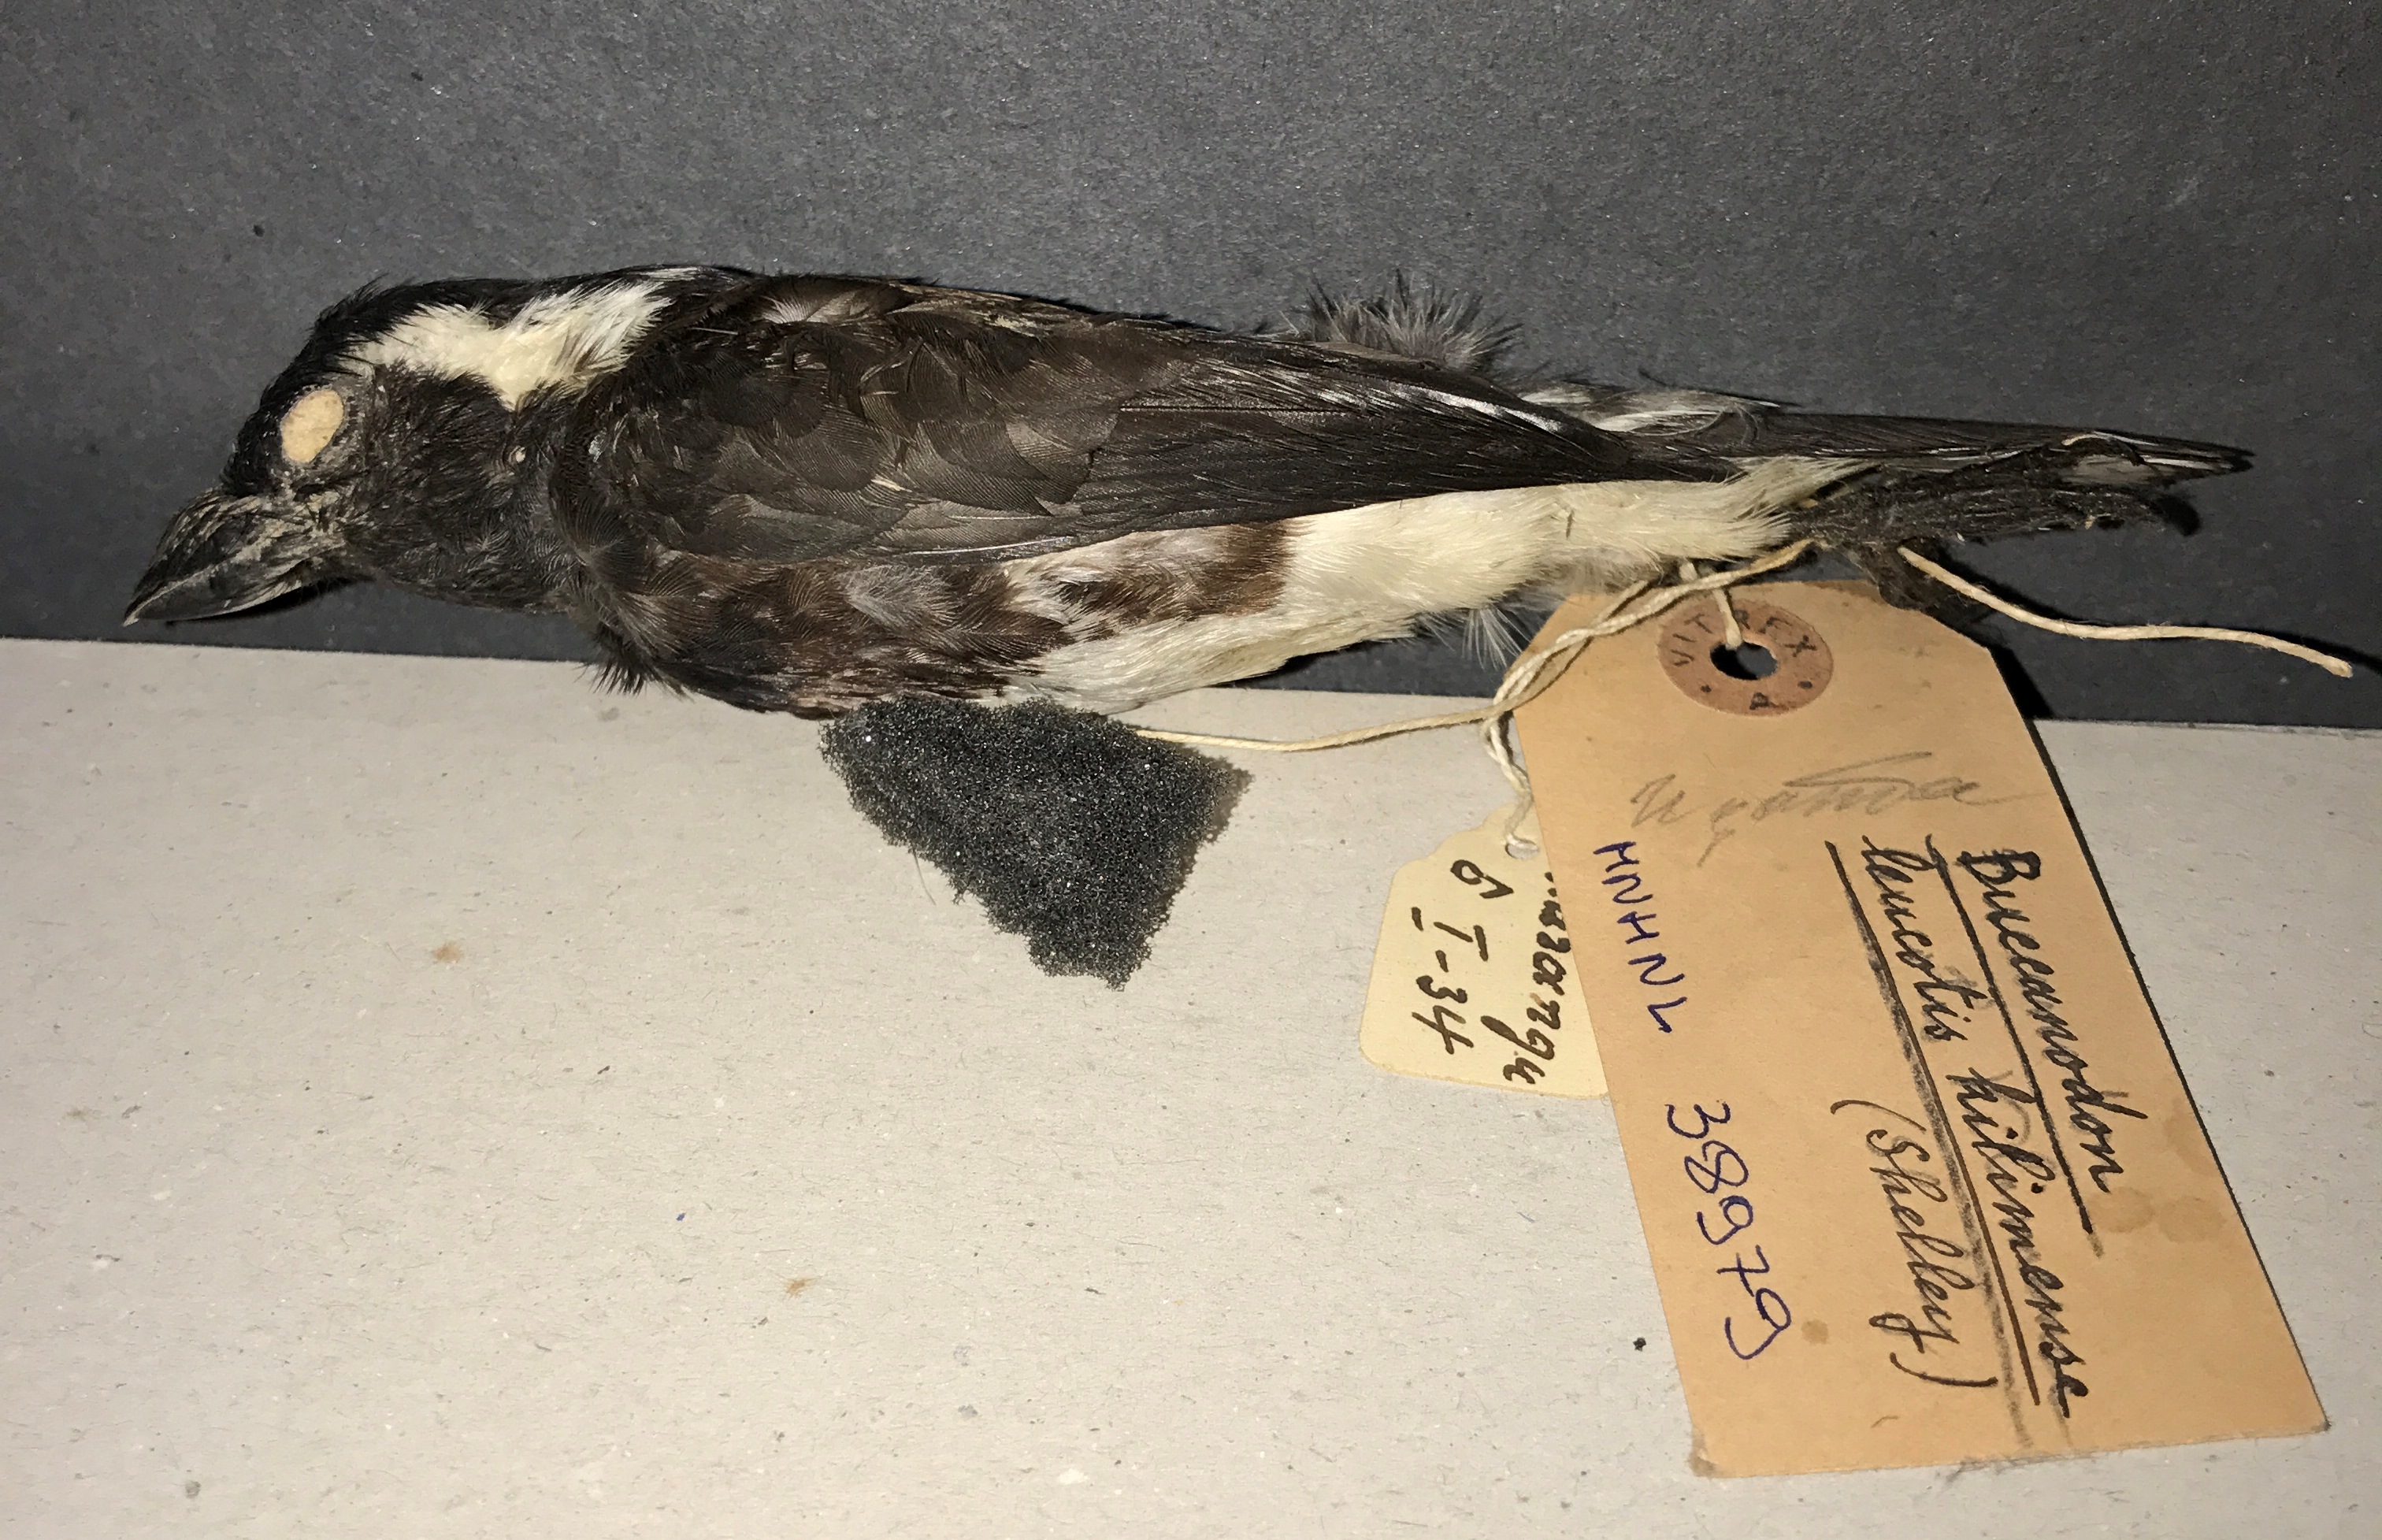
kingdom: Animalia
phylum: Chordata
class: Aves
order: Piciformes
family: Lybiidae
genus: Stactolaema
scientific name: Stactolaema leucotis
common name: White-eared barbet
